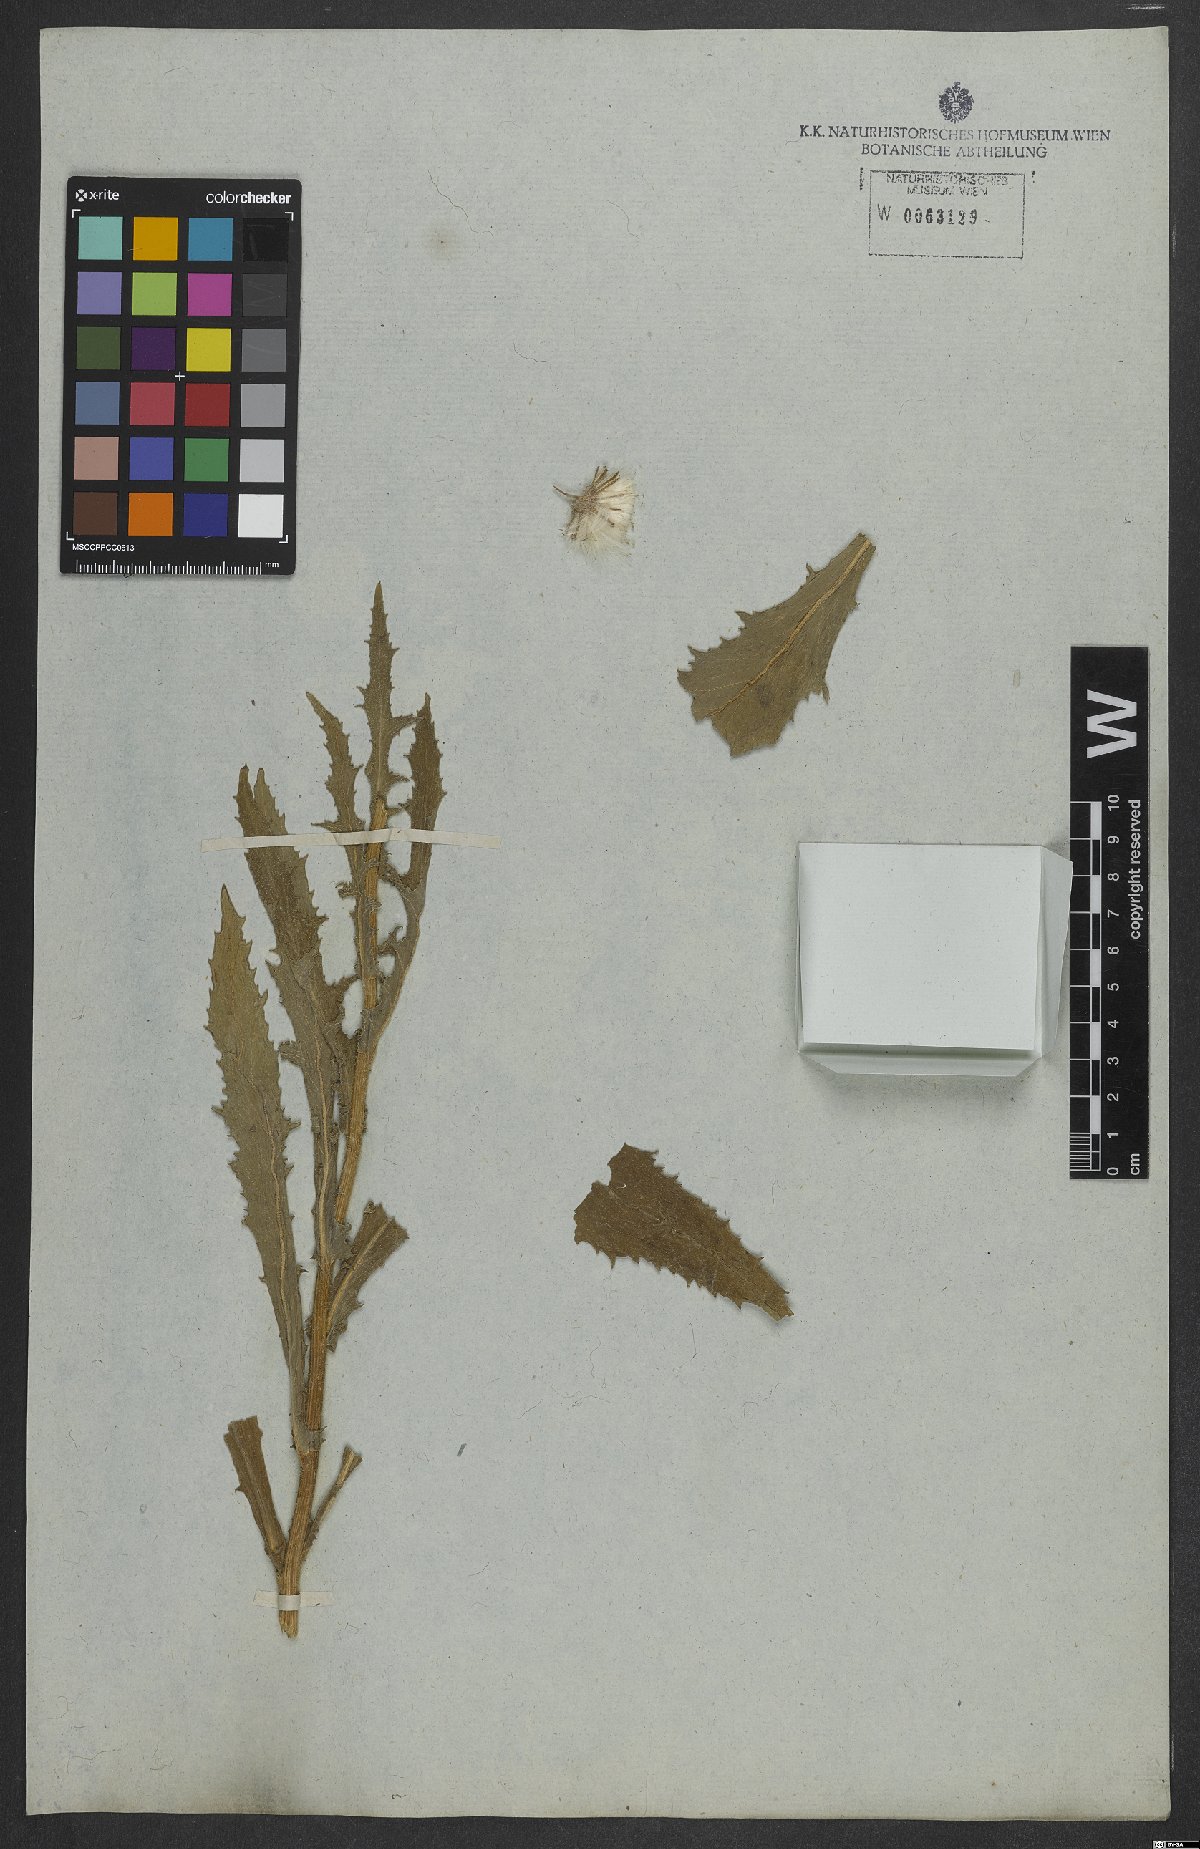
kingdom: Plantae
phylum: Tracheophyta
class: Magnoliopsida
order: Asterales
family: Asteraceae
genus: Erechtites
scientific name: Erechtites hieraciifolius
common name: American burnweed
